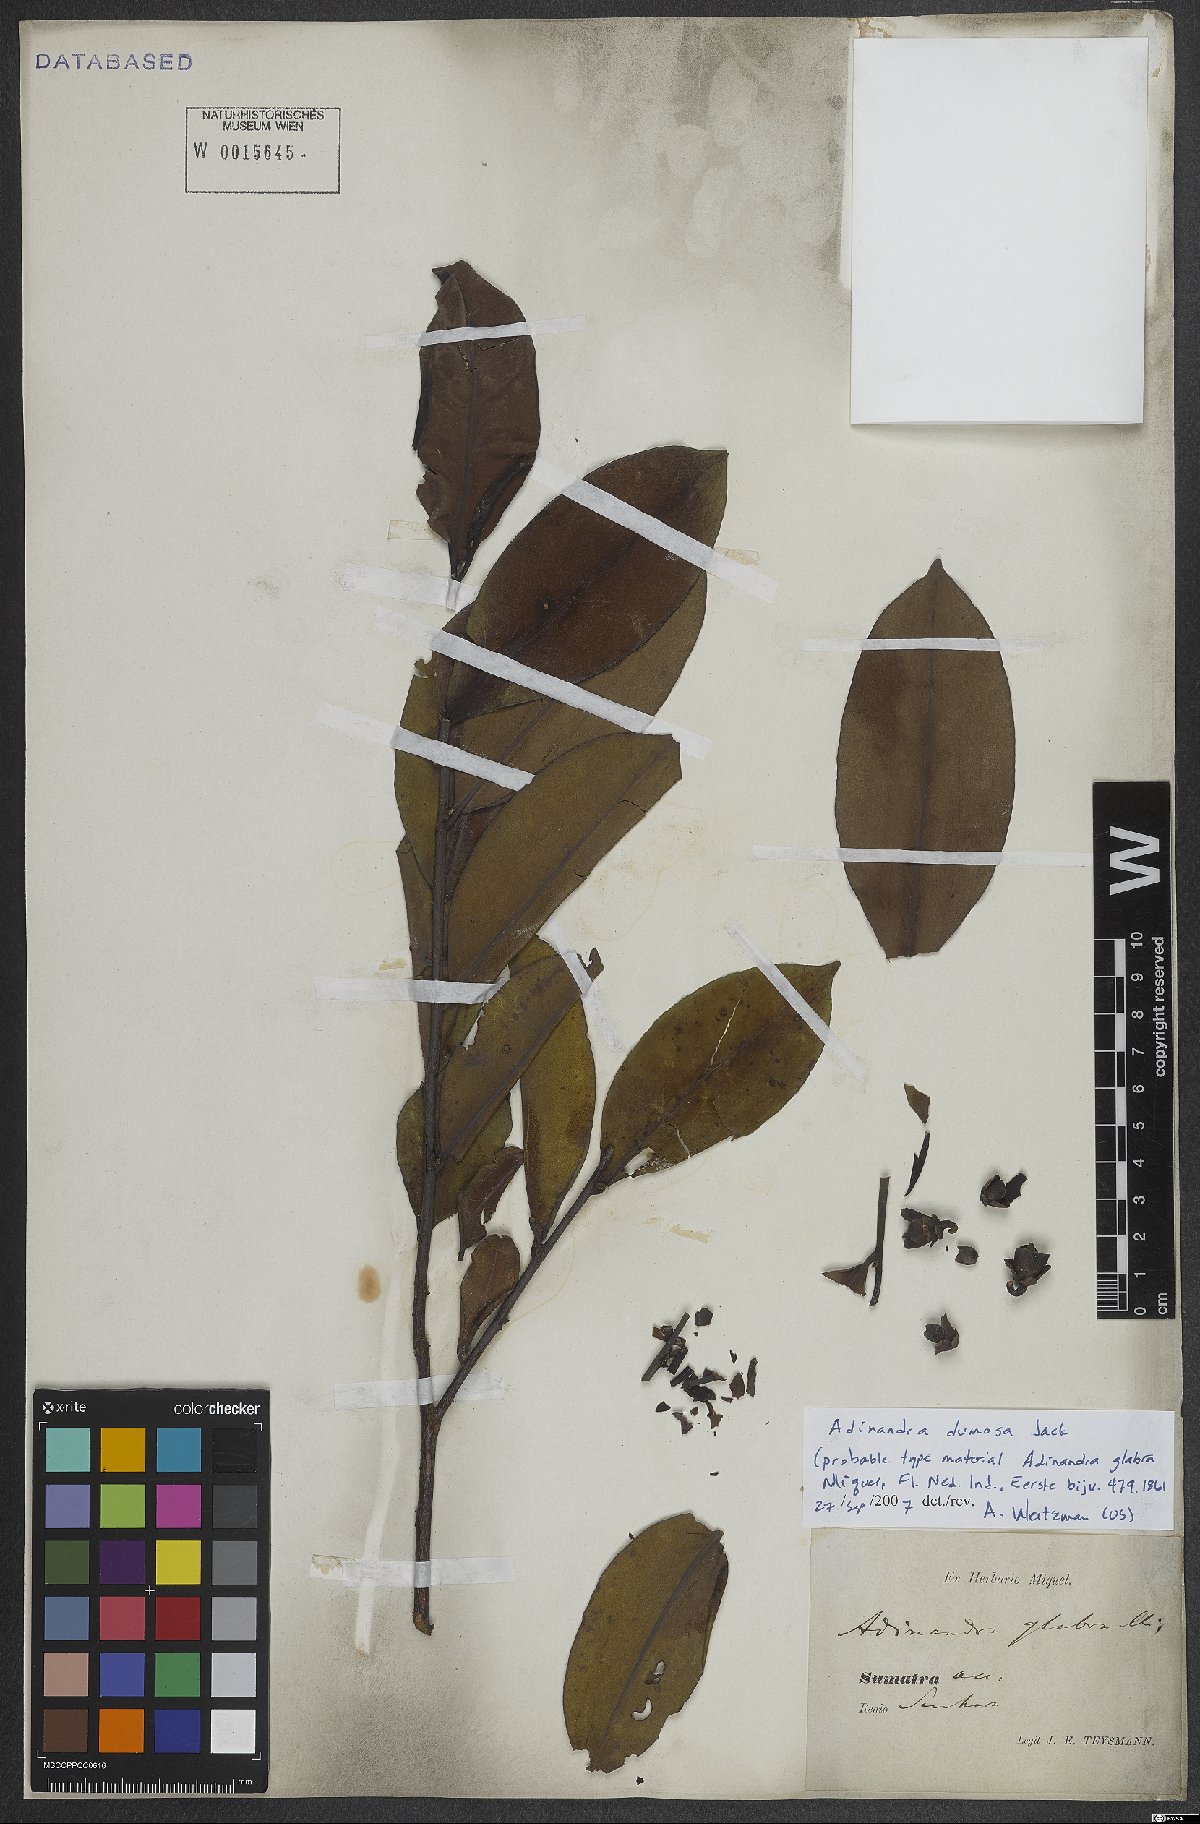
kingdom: Plantae
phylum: Tracheophyta
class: Magnoliopsida
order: Ericales
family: Pentaphylacaceae
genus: Adinandra
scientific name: Adinandra dumosa
